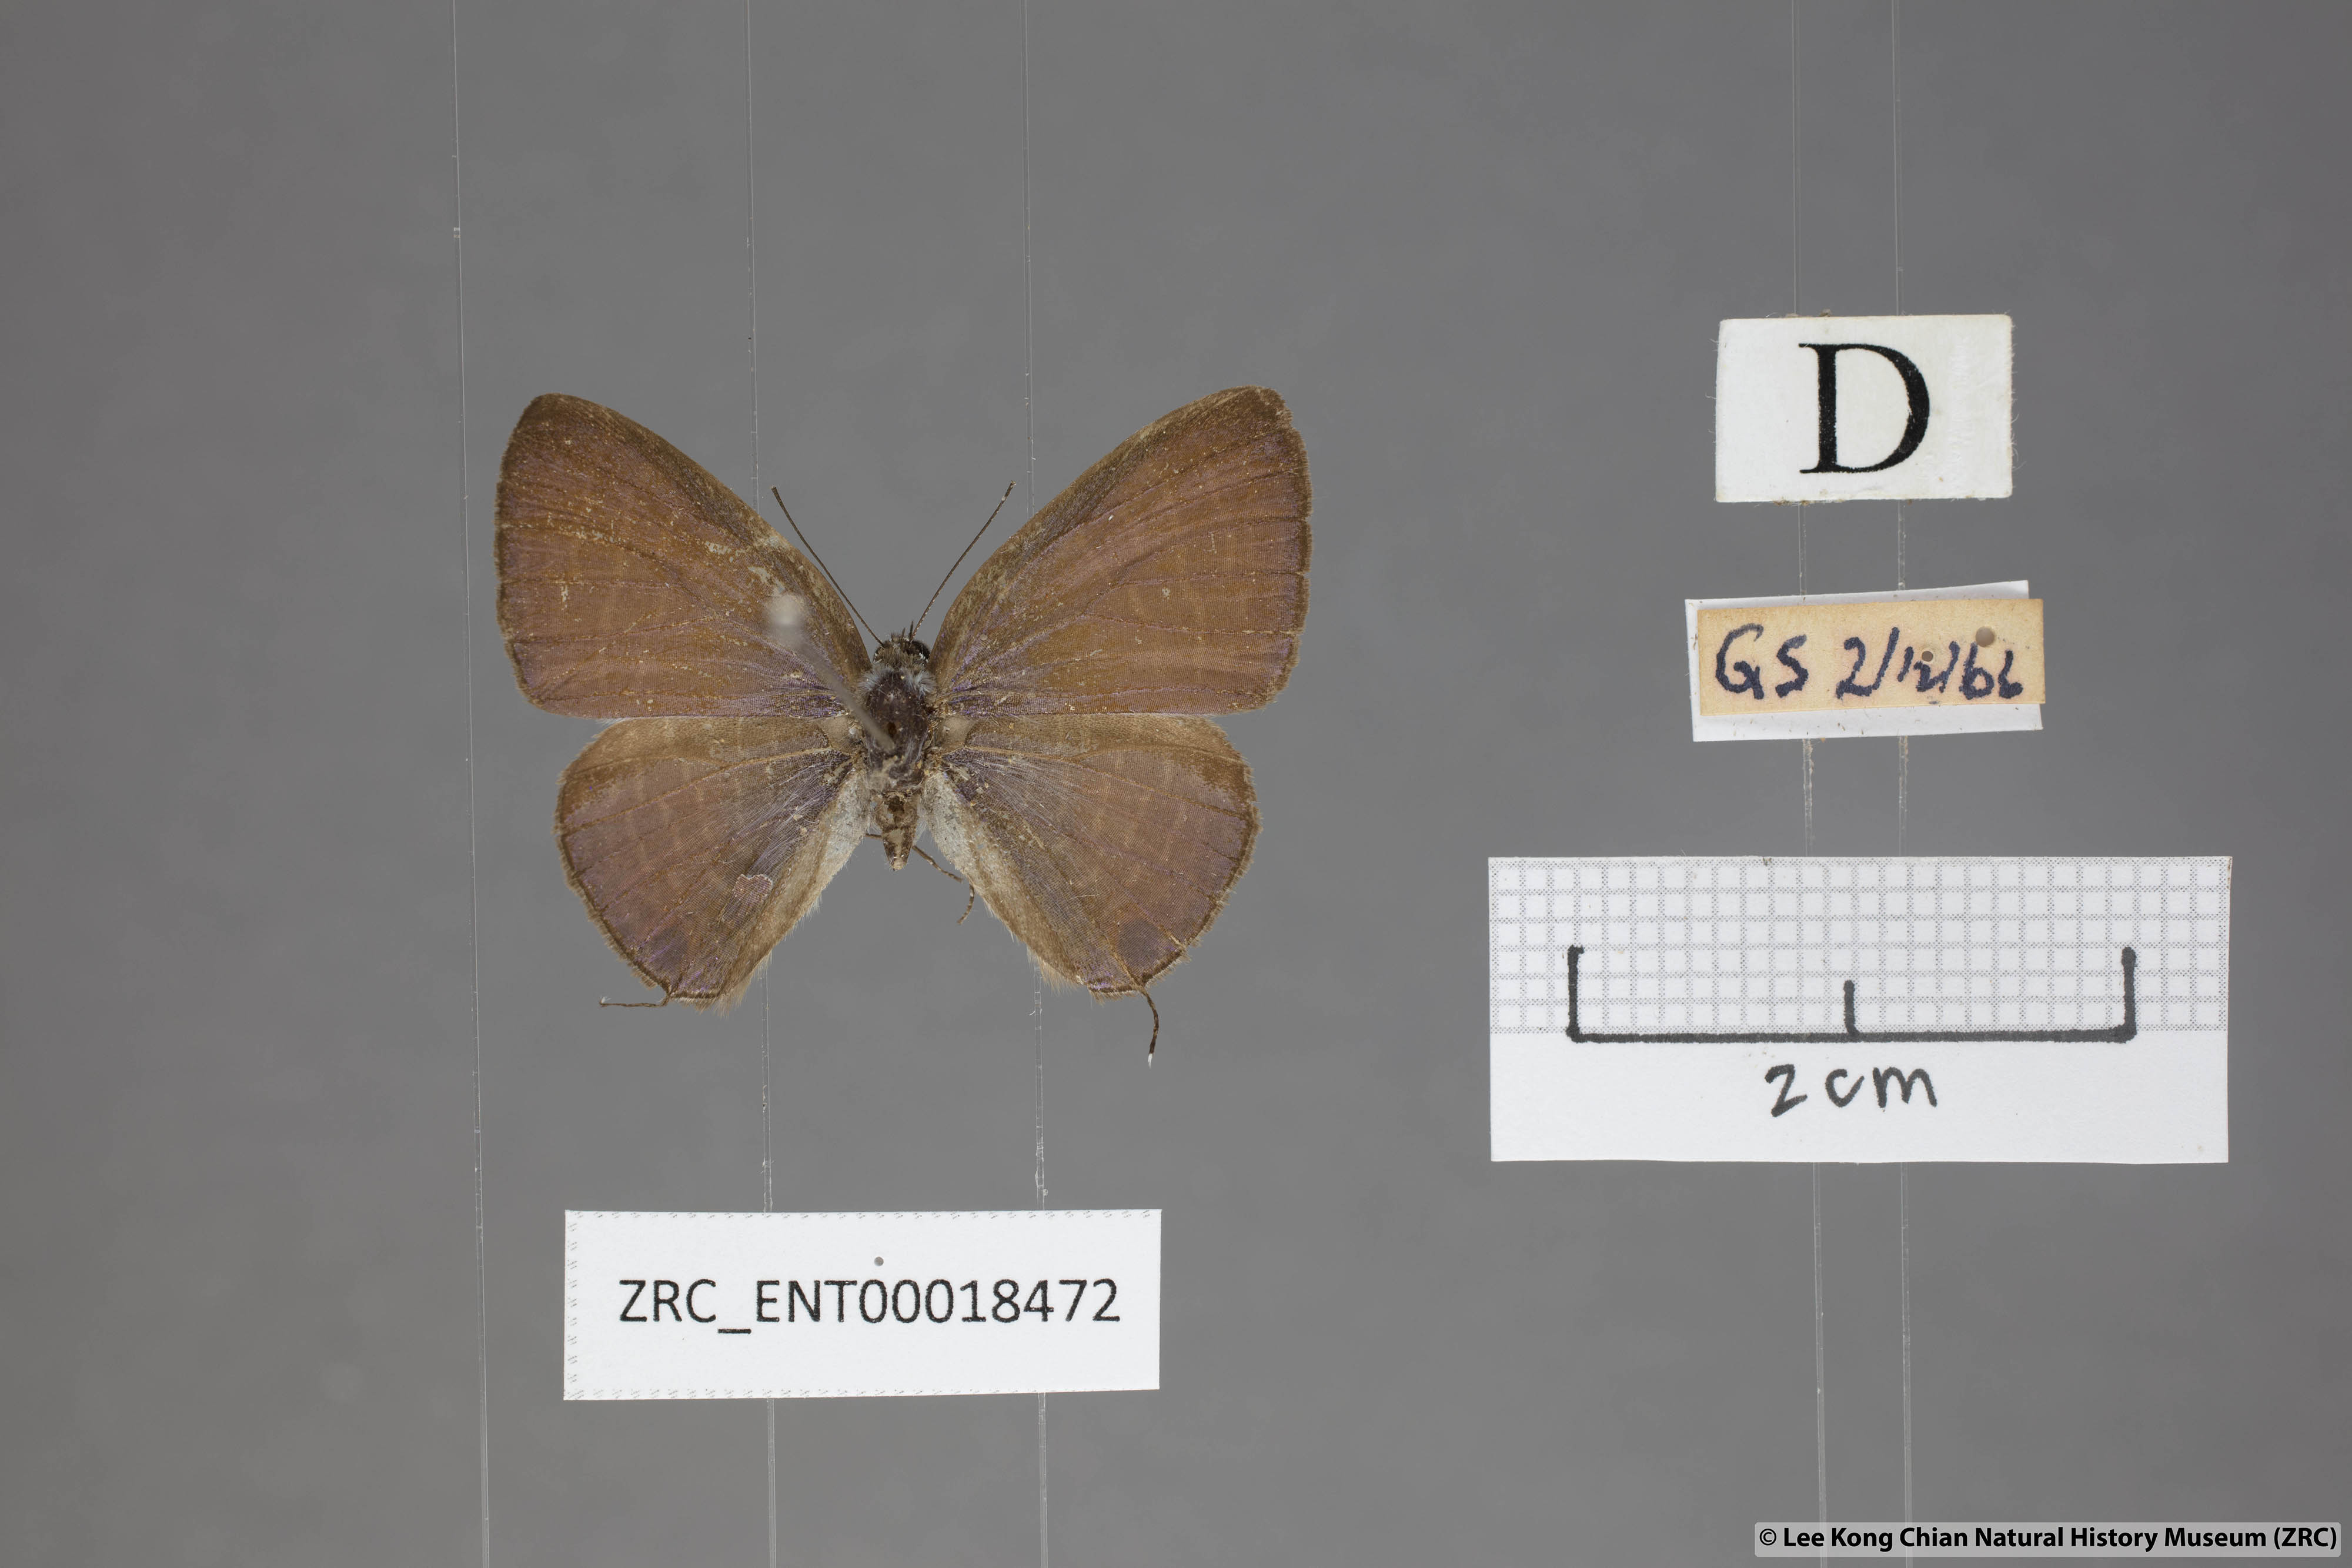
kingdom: Animalia
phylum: Arthropoda
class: Insecta
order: Lepidoptera
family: Lycaenidae
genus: Nacaduba
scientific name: Nacaduba solta
